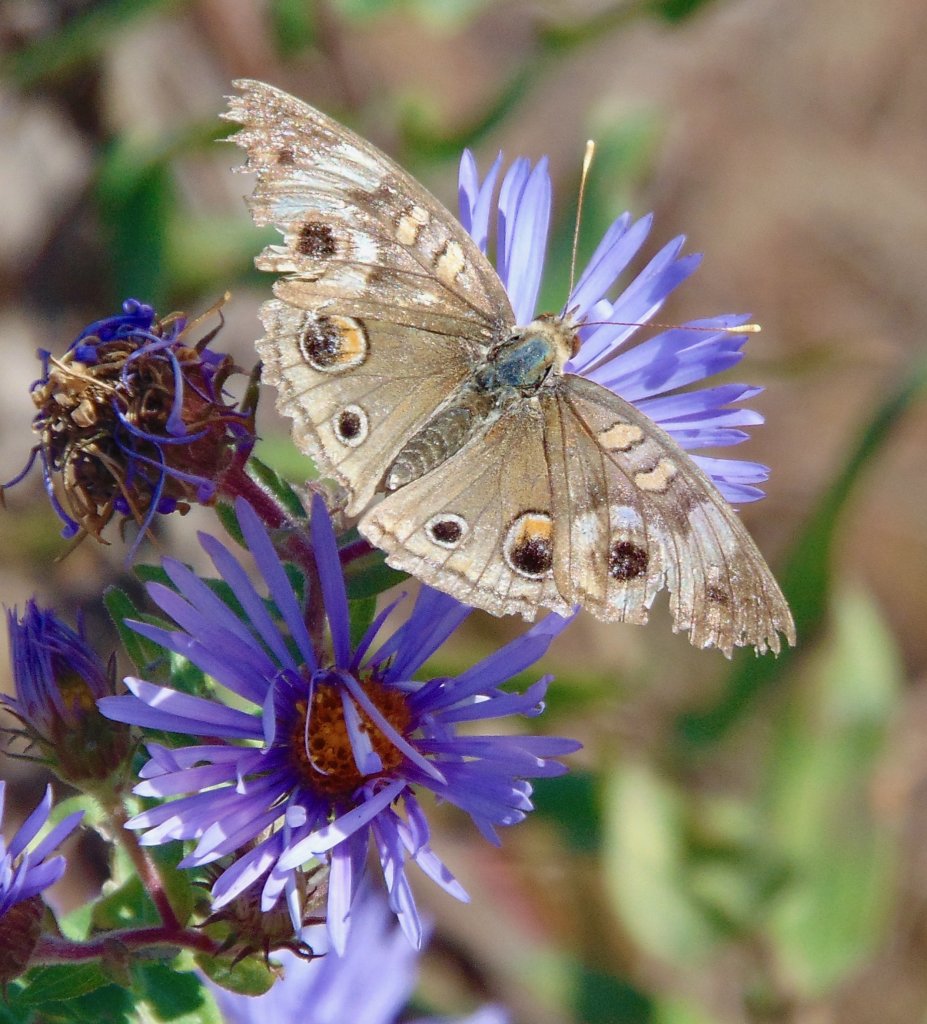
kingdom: Animalia
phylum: Arthropoda
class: Insecta
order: Lepidoptera
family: Nymphalidae
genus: Junonia
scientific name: Junonia coenia
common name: Common Buckeye
